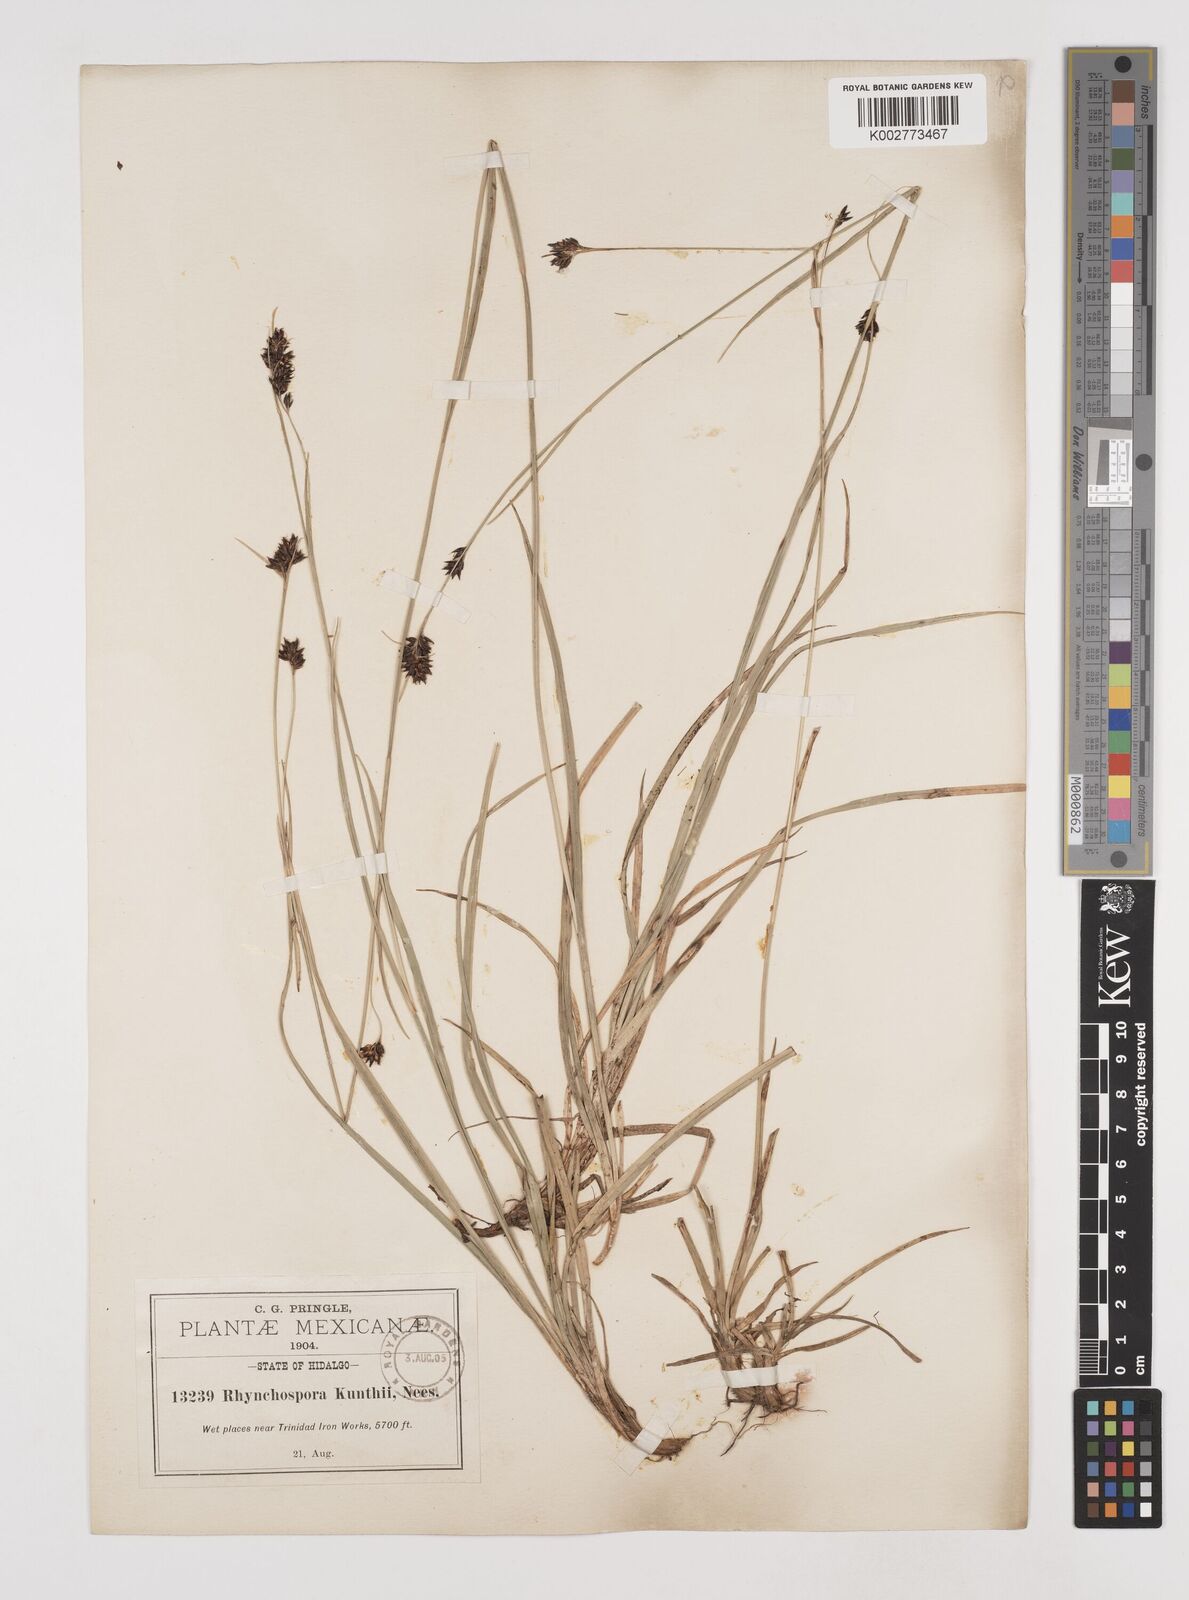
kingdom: Plantae
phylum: Tracheophyta
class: Liliopsida
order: Poales
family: Cyperaceae
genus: Rhynchospora
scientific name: Rhynchospora kunthii
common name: Kunth's beaksedge
